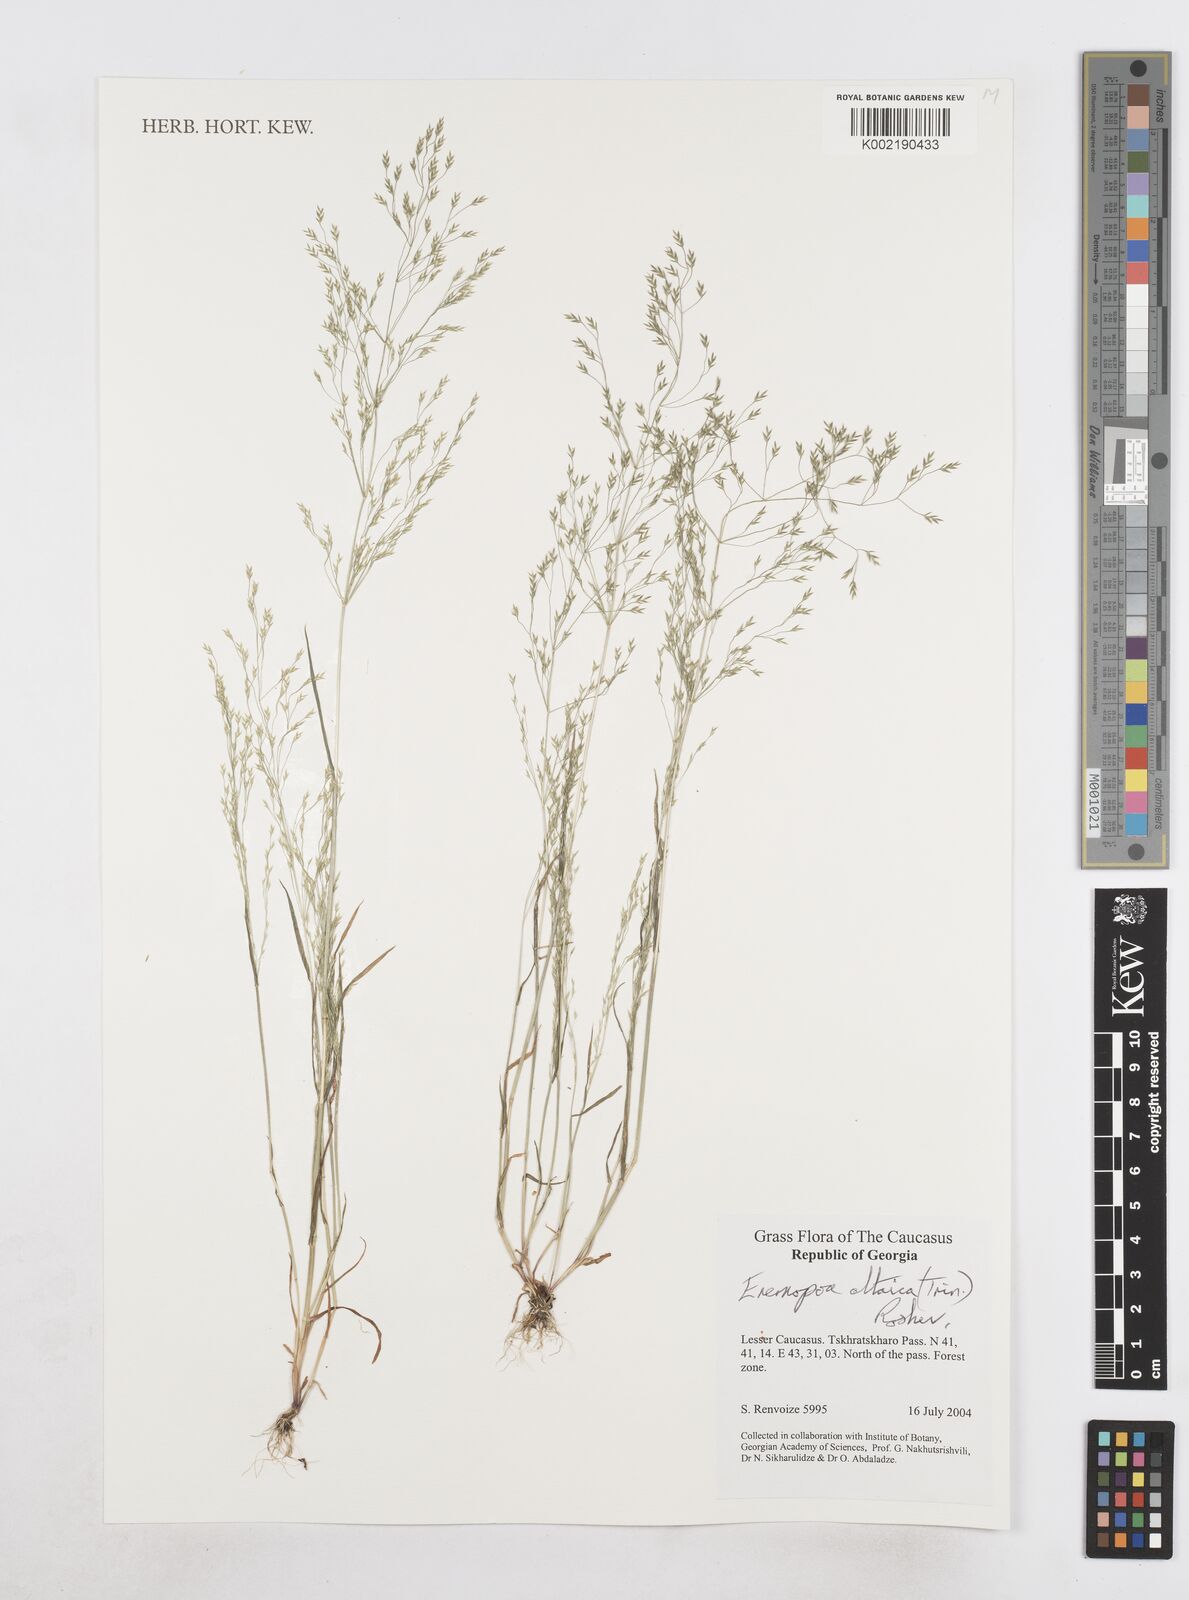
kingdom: Plantae
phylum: Tracheophyta
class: Liliopsida
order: Poales
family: Poaceae
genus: Poa
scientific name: Poa diaphora
